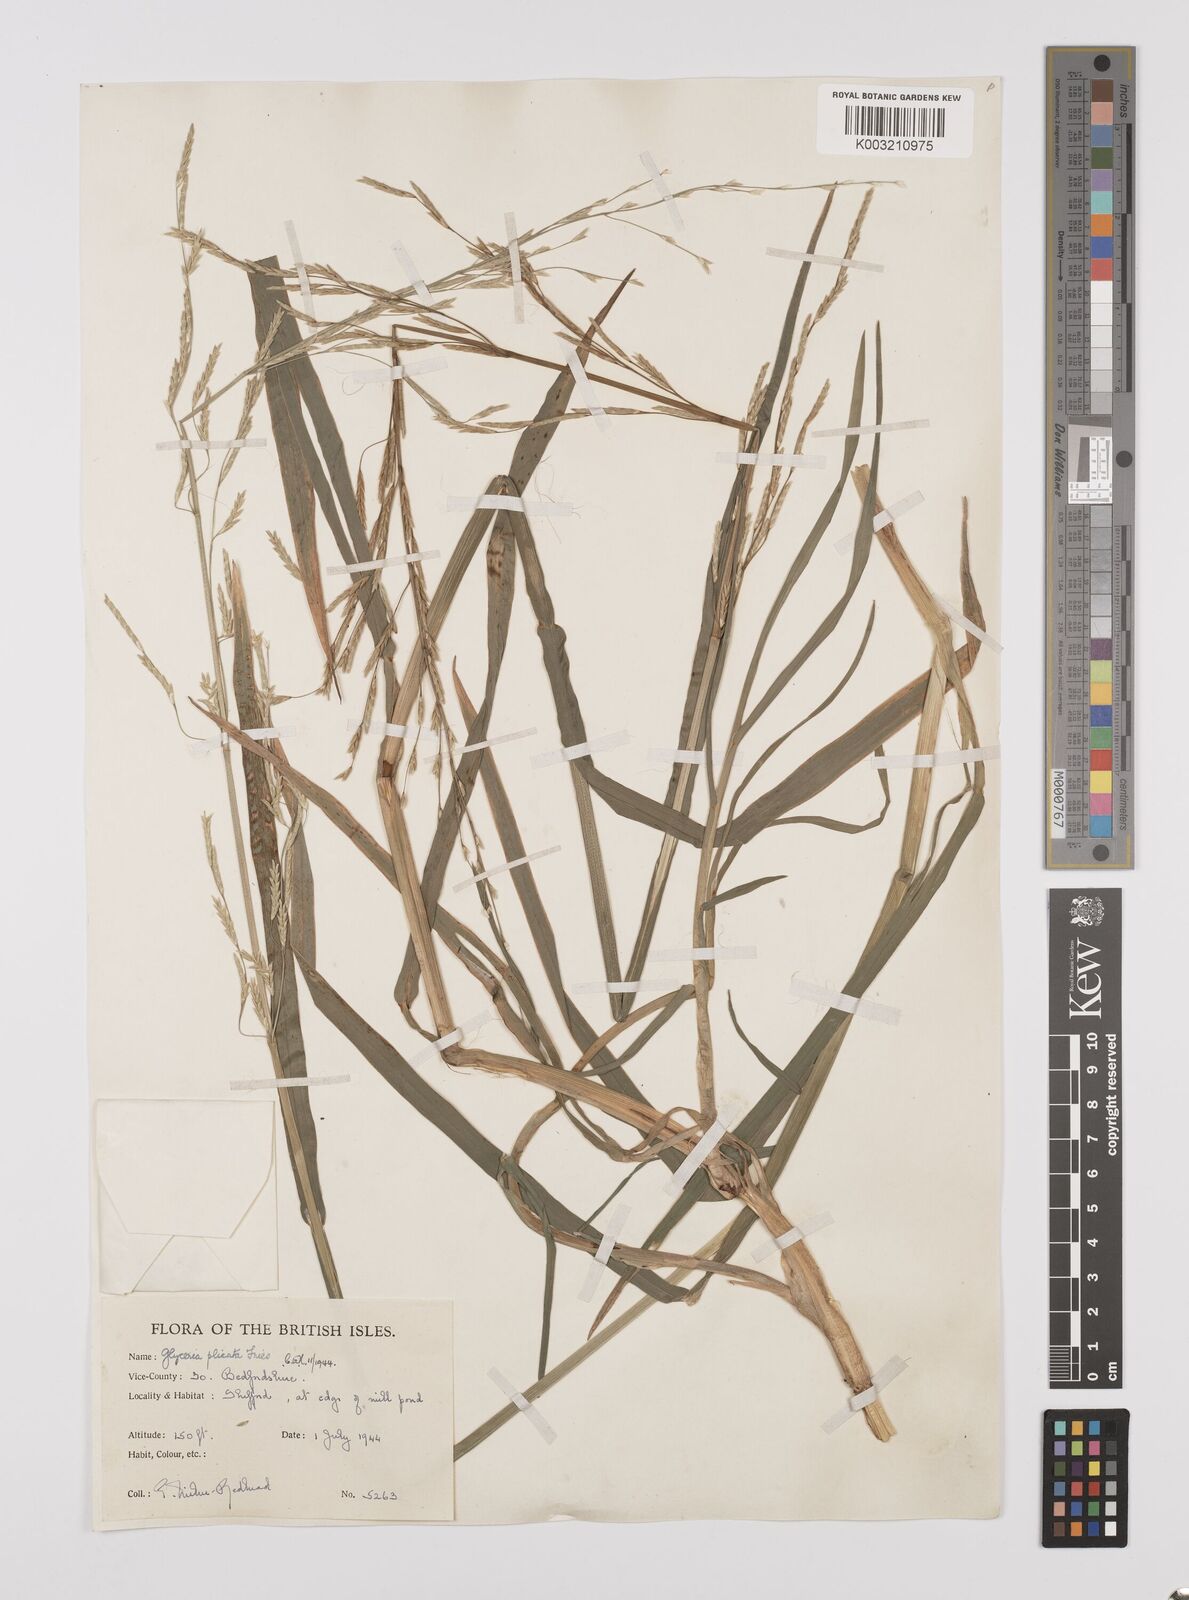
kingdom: Plantae
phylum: Tracheophyta
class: Liliopsida
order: Poales
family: Poaceae
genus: Glyceria
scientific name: Glyceria notata
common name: Plicate sweet-grass
